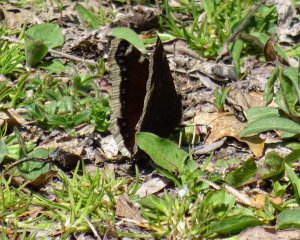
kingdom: Animalia
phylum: Arthropoda
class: Insecta
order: Lepidoptera
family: Nymphalidae
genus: Nymphalis
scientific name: Nymphalis antiopa
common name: Mourning Cloak
